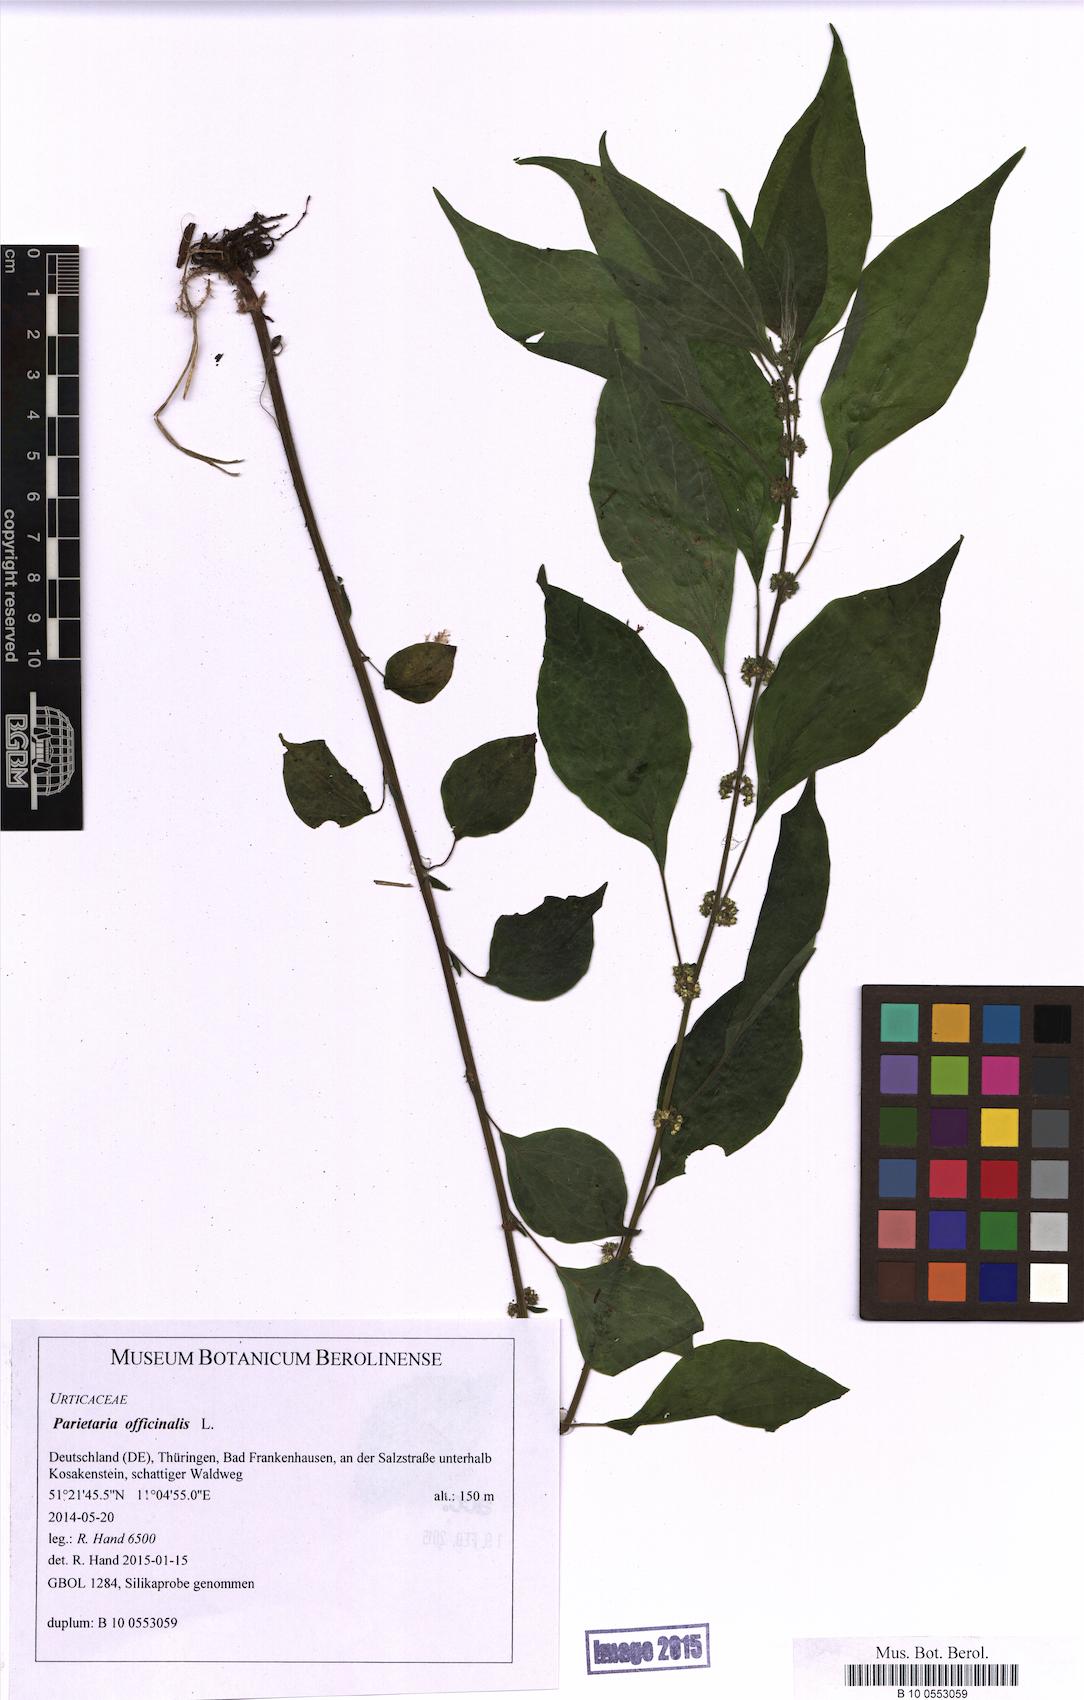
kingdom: Plantae
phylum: Tracheophyta
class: Magnoliopsida
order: Rosales
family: Urticaceae
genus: Parietaria
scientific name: Parietaria officinalis
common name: Eastern pellitory-of-the-wall
